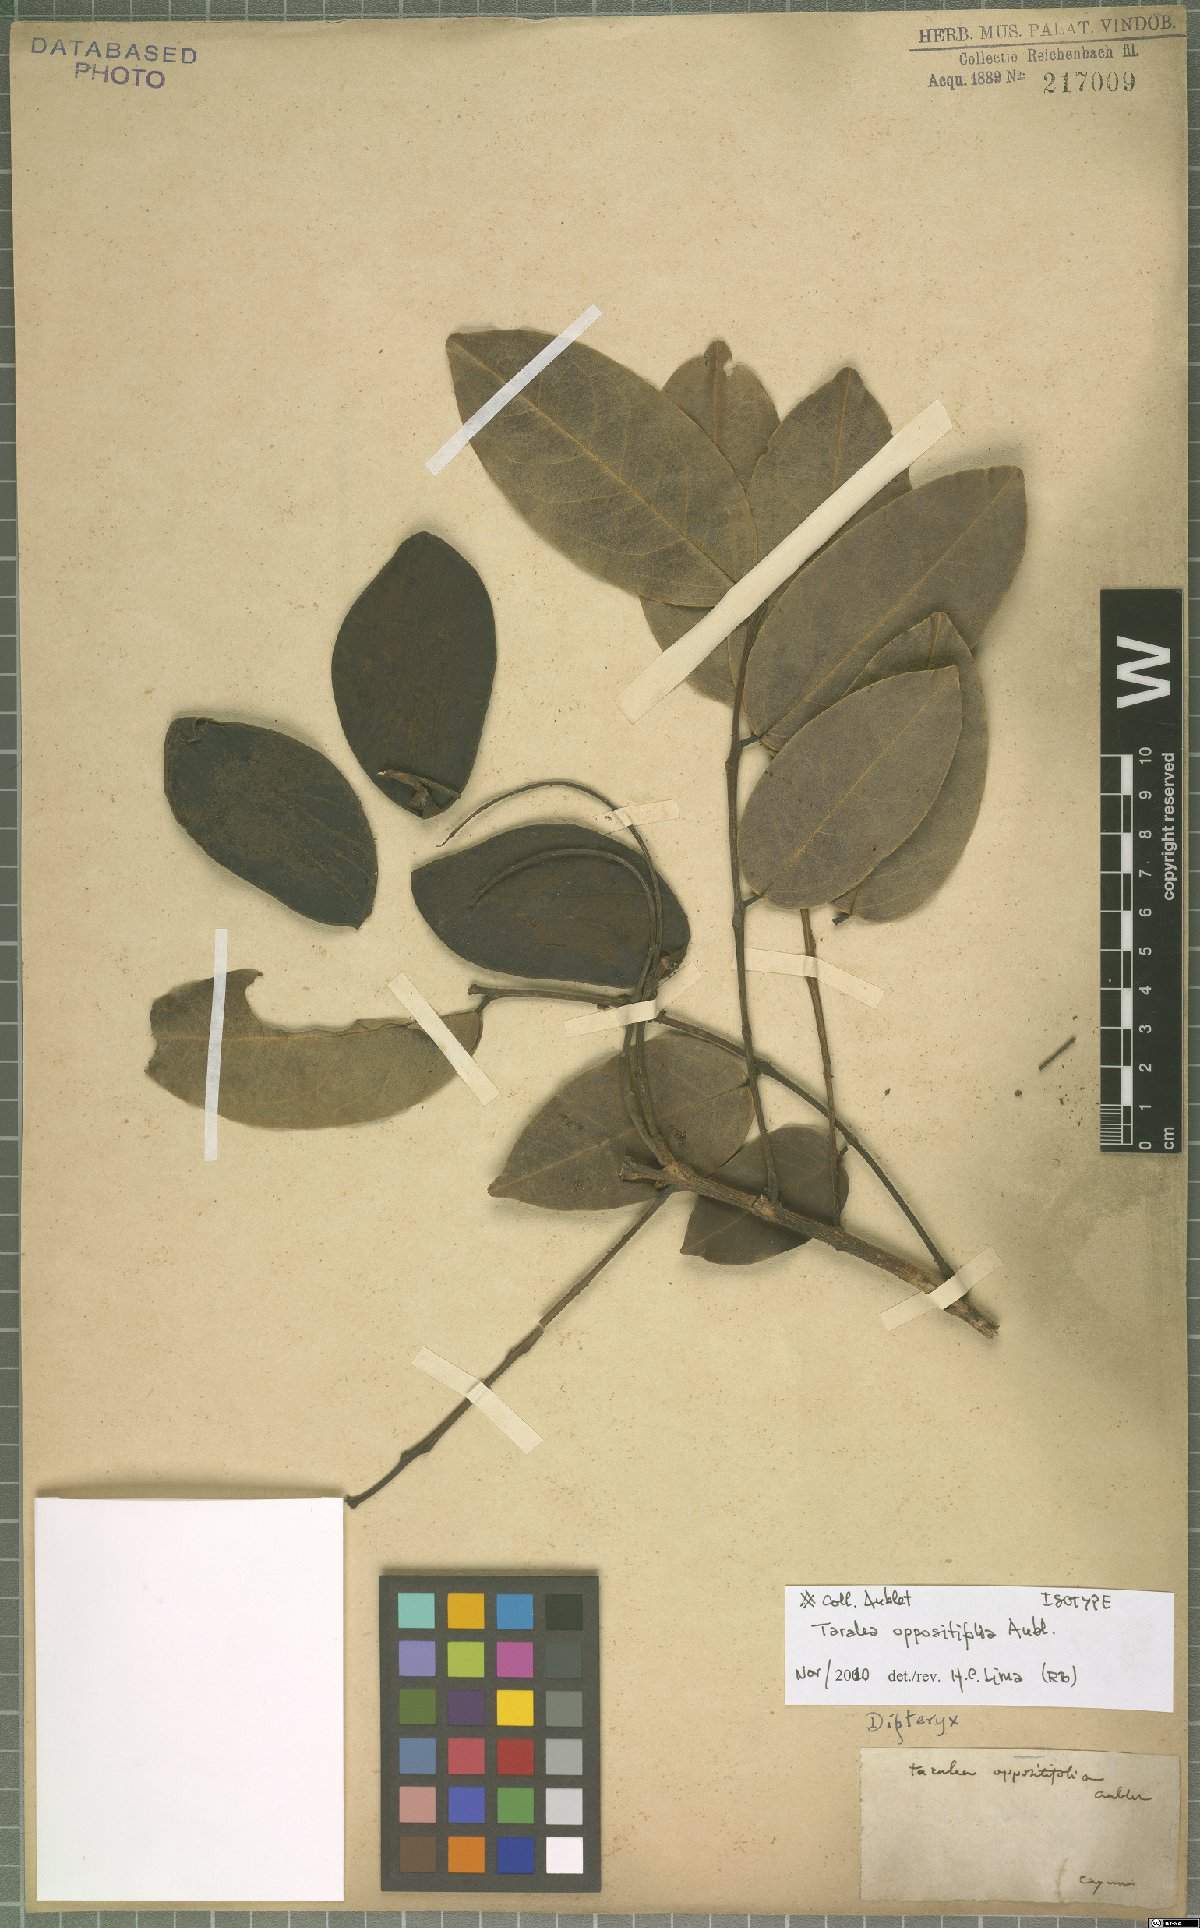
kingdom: Plantae
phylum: Tracheophyta
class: Magnoliopsida
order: Fabales
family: Fabaceae
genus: Taralea
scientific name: Taralea oppositifolia
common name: Tonka
